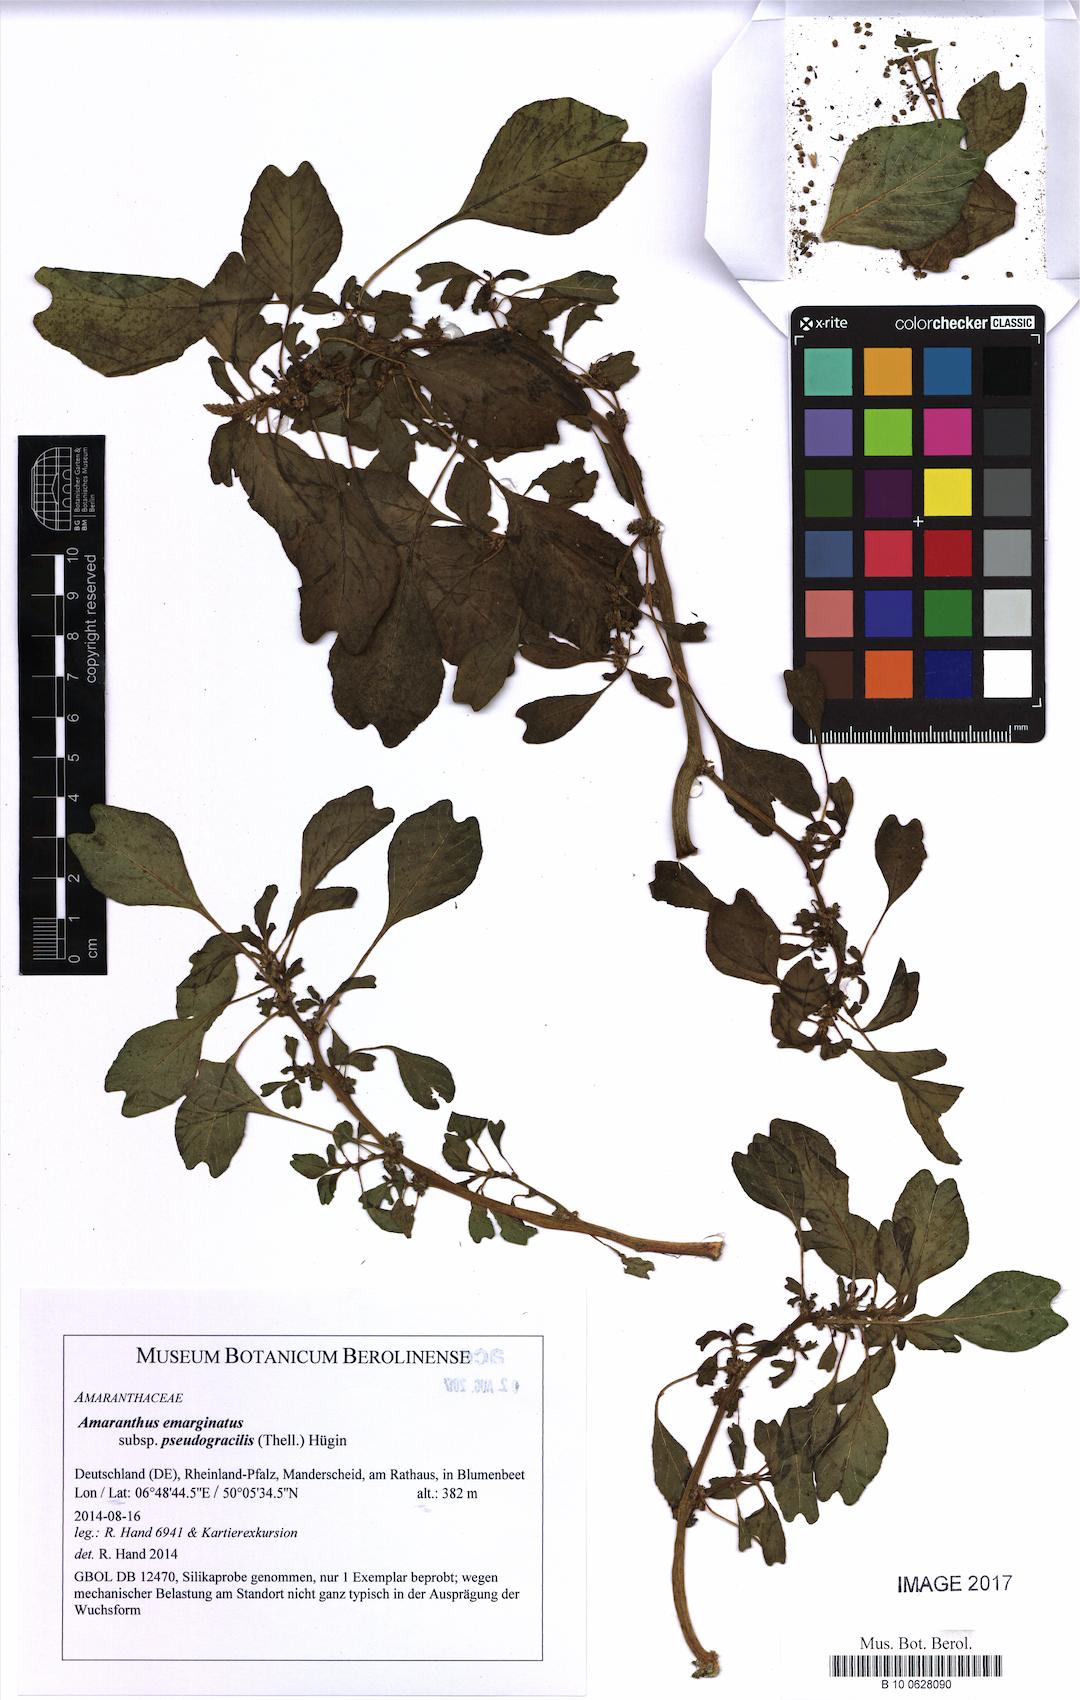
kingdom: Plantae
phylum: Tracheophyta
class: Magnoliopsida
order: Caryophyllales
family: Amaranthaceae
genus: Amaranthus
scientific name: Amaranthus emarginatus
